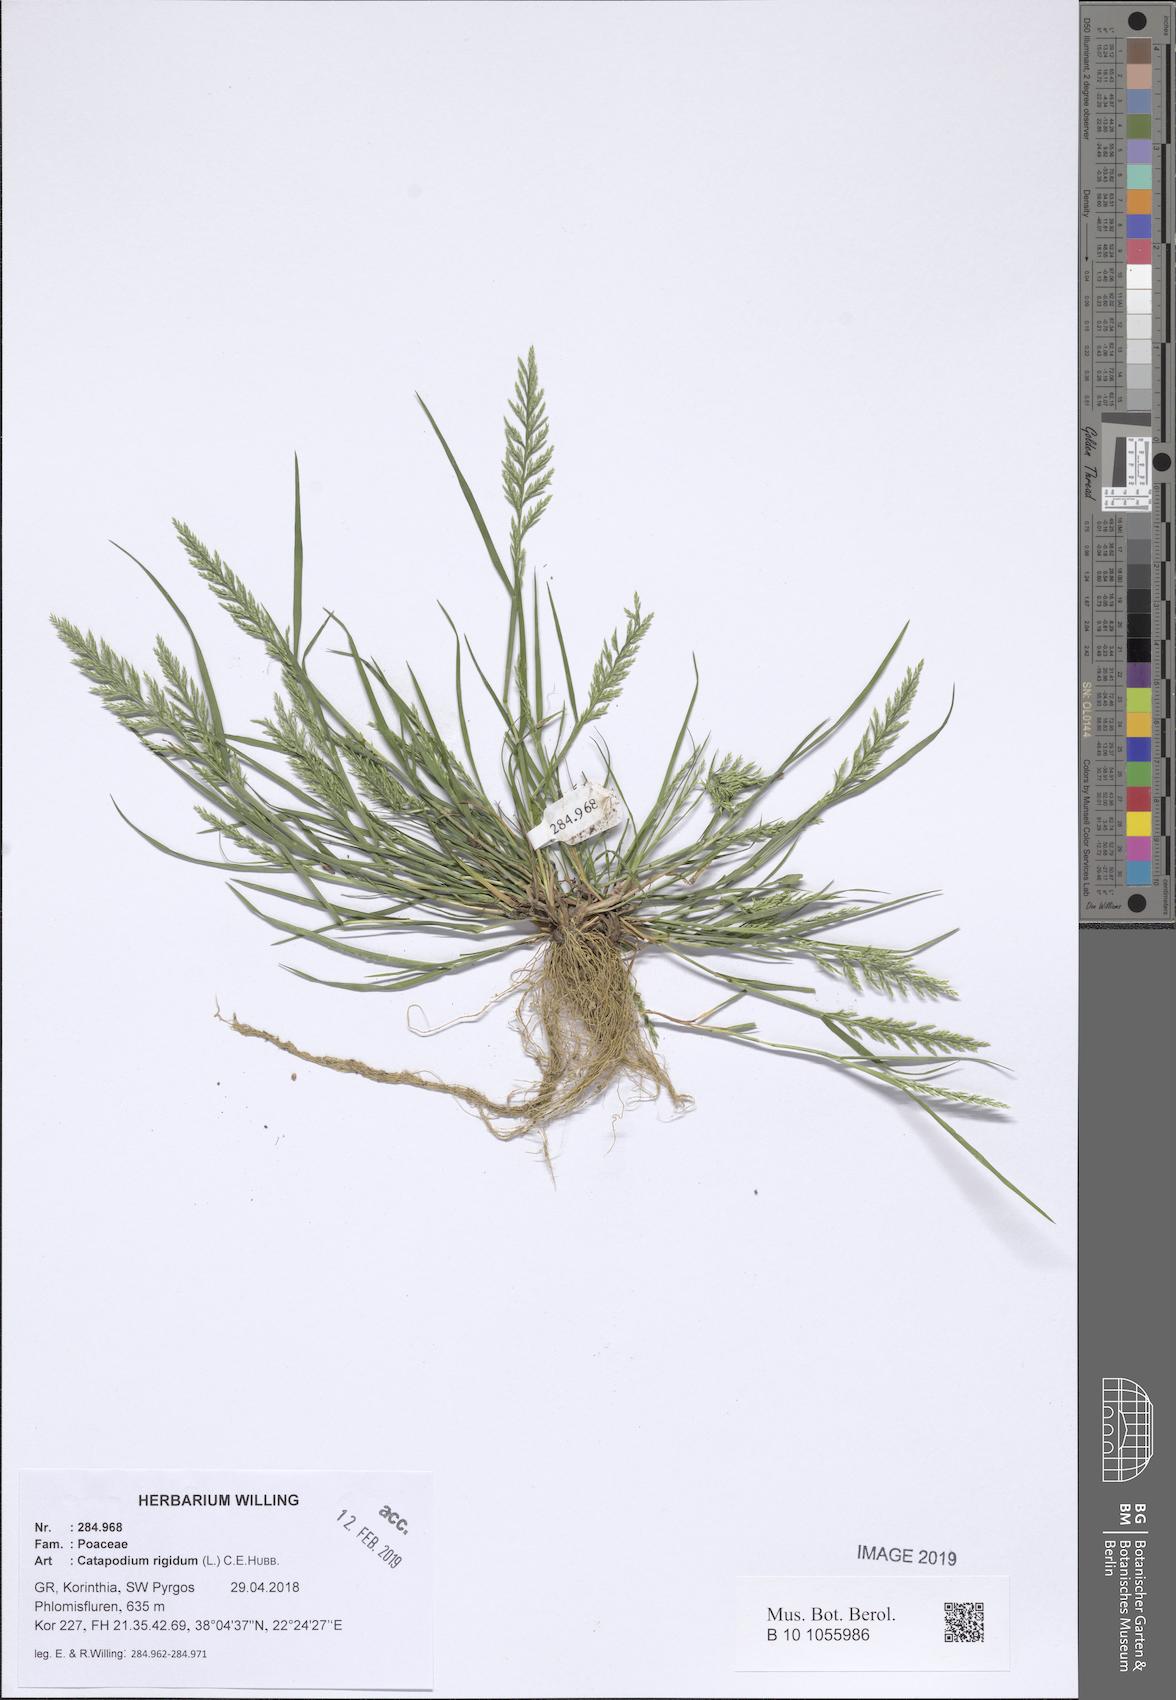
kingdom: Plantae
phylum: Tracheophyta
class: Liliopsida
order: Poales
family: Poaceae
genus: Catapodium
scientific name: Catapodium rigidum
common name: Fern-grass
